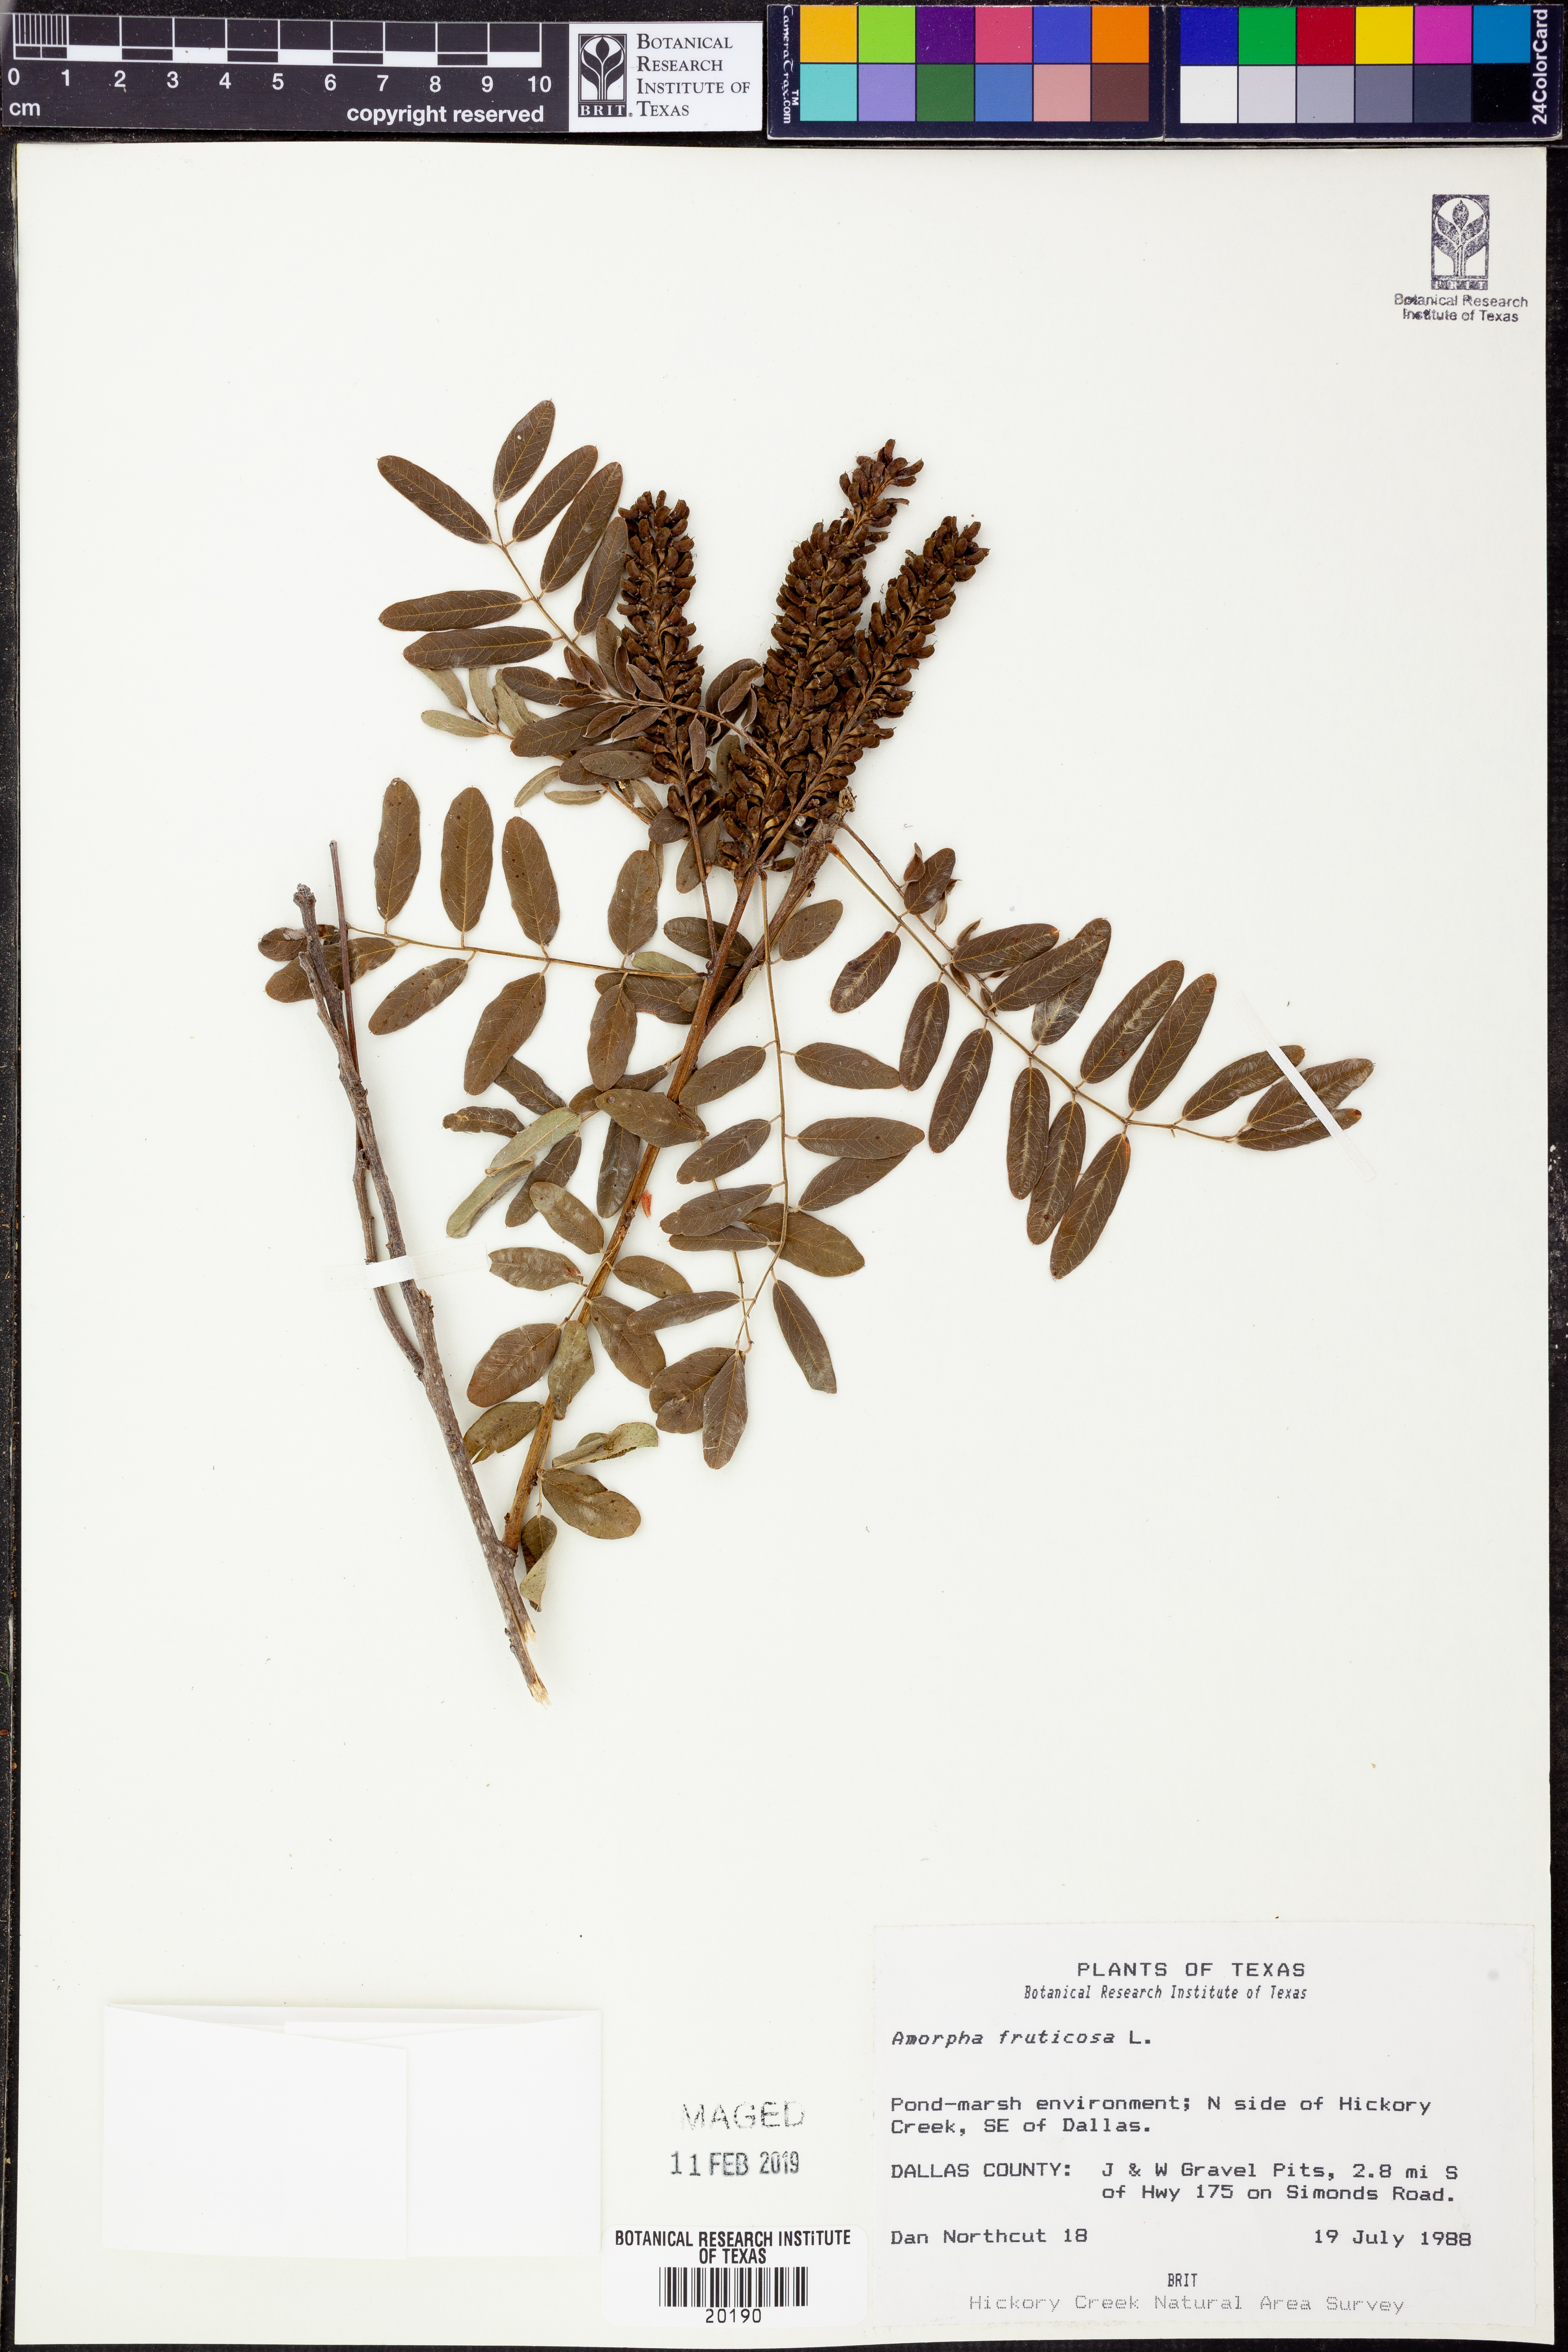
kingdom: Plantae
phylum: Tracheophyta
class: Magnoliopsida
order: Fabales
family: Fabaceae
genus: Amorpha
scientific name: Amorpha fruticosa
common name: False indigo
